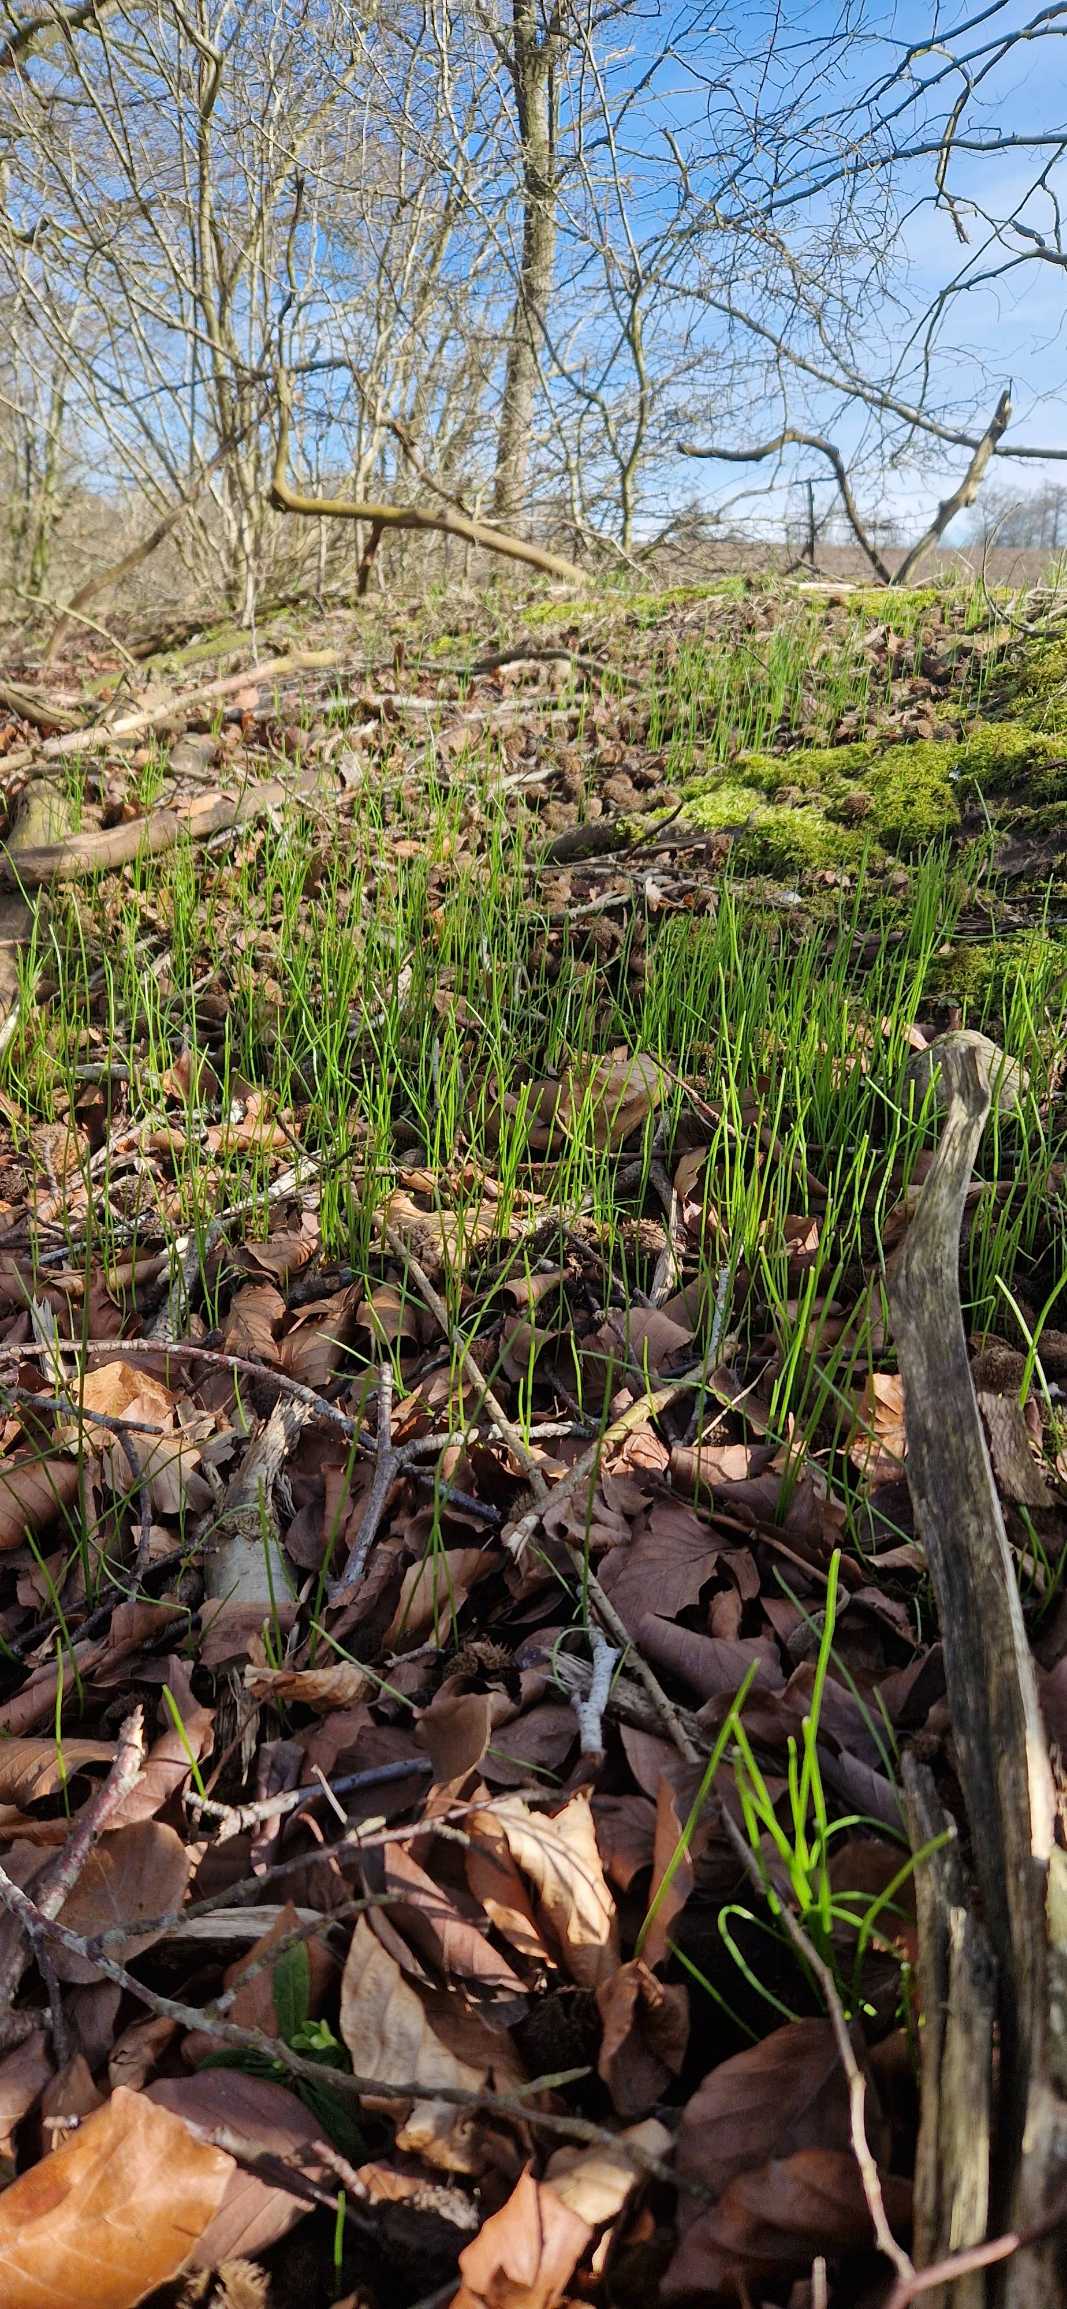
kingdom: Plantae
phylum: Tracheophyta
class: Liliopsida
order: Liliales
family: Liliaceae
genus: Gagea
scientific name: Gagea spathacea
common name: Hylster-guldstjerne
